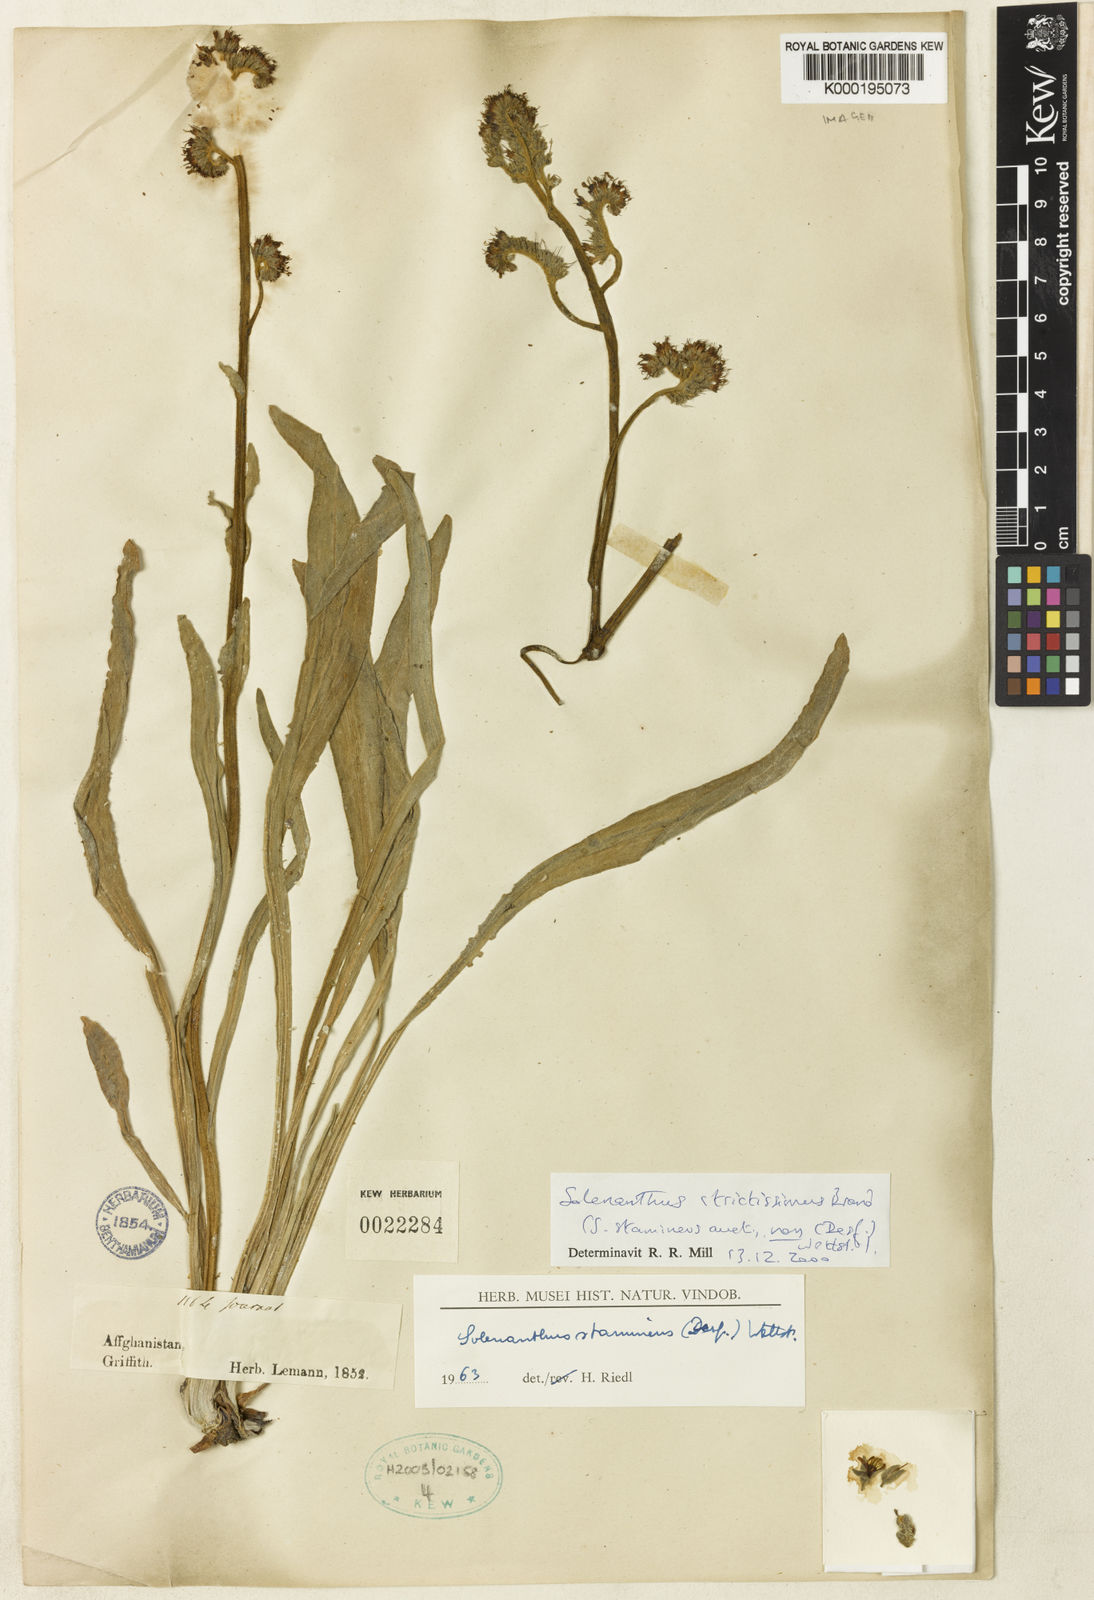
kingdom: Plantae
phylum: Tracheophyta
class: Magnoliopsida
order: Boraginales
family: Boraginaceae
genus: Solenanthus
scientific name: Solenanthus strictissimus
